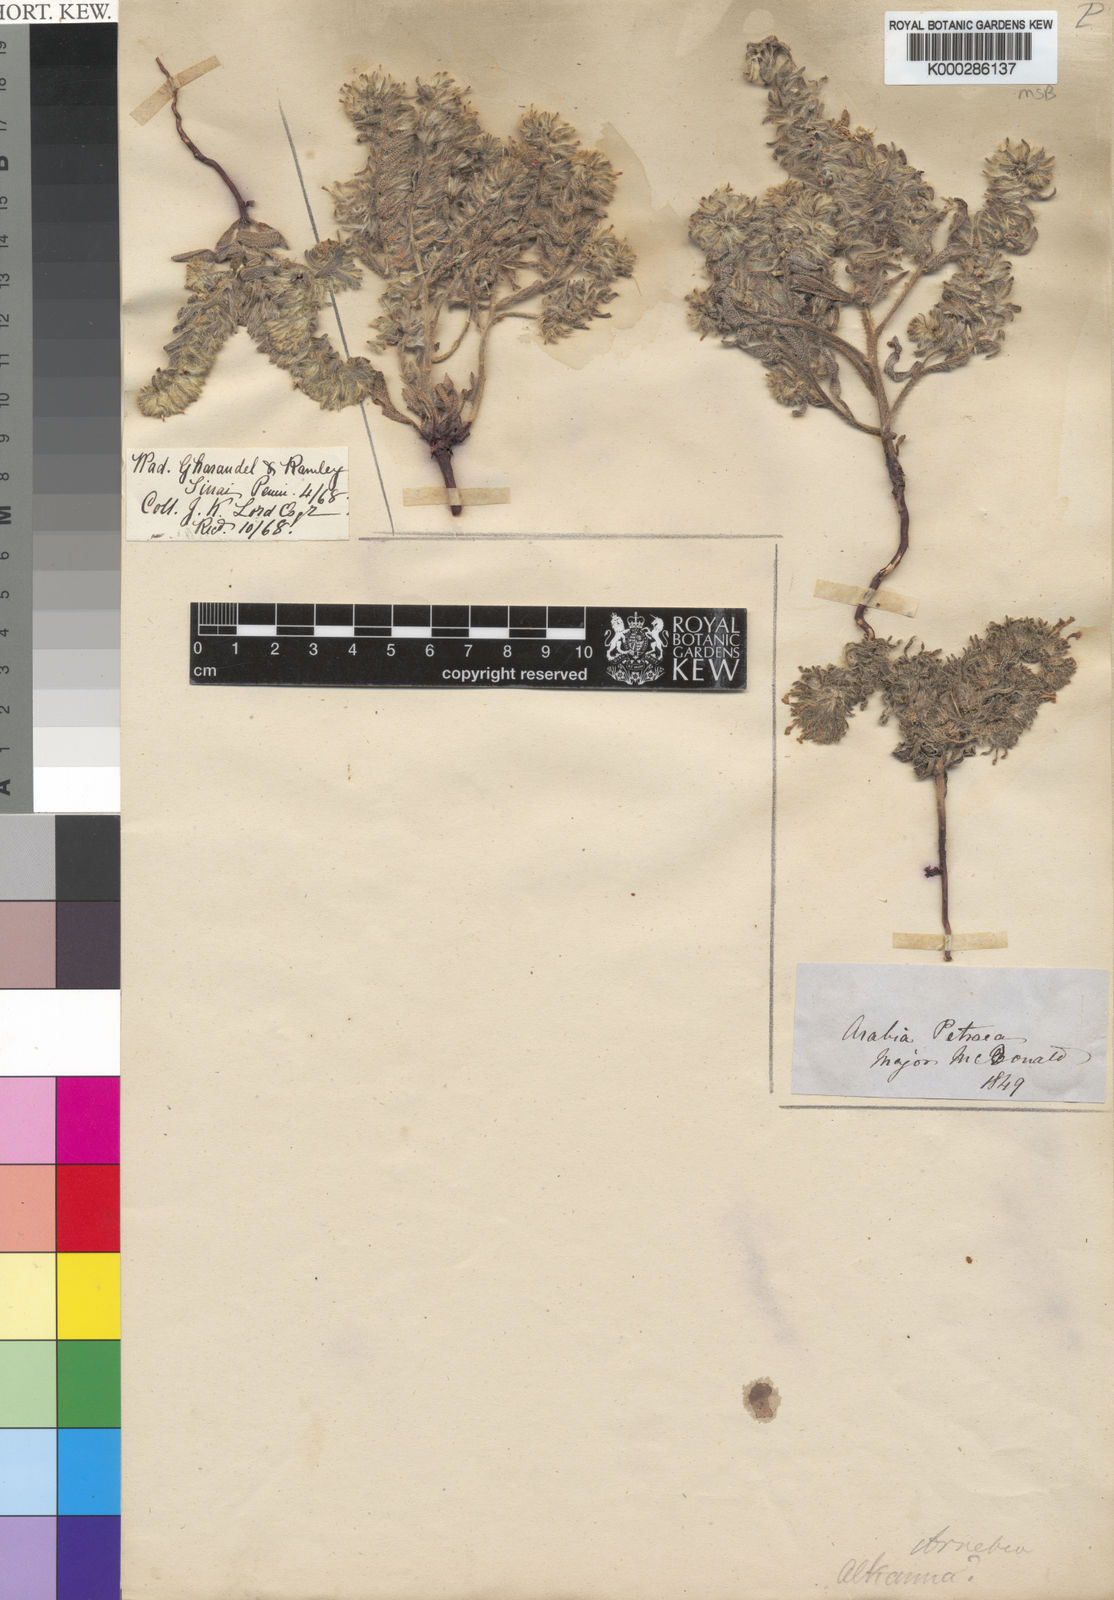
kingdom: Plantae
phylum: Tracheophyta
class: Magnoliopsida
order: Boraginales
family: Boraginaceae
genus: Arnebia
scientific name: Arnebia hispidissima
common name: Arabian-primrose
